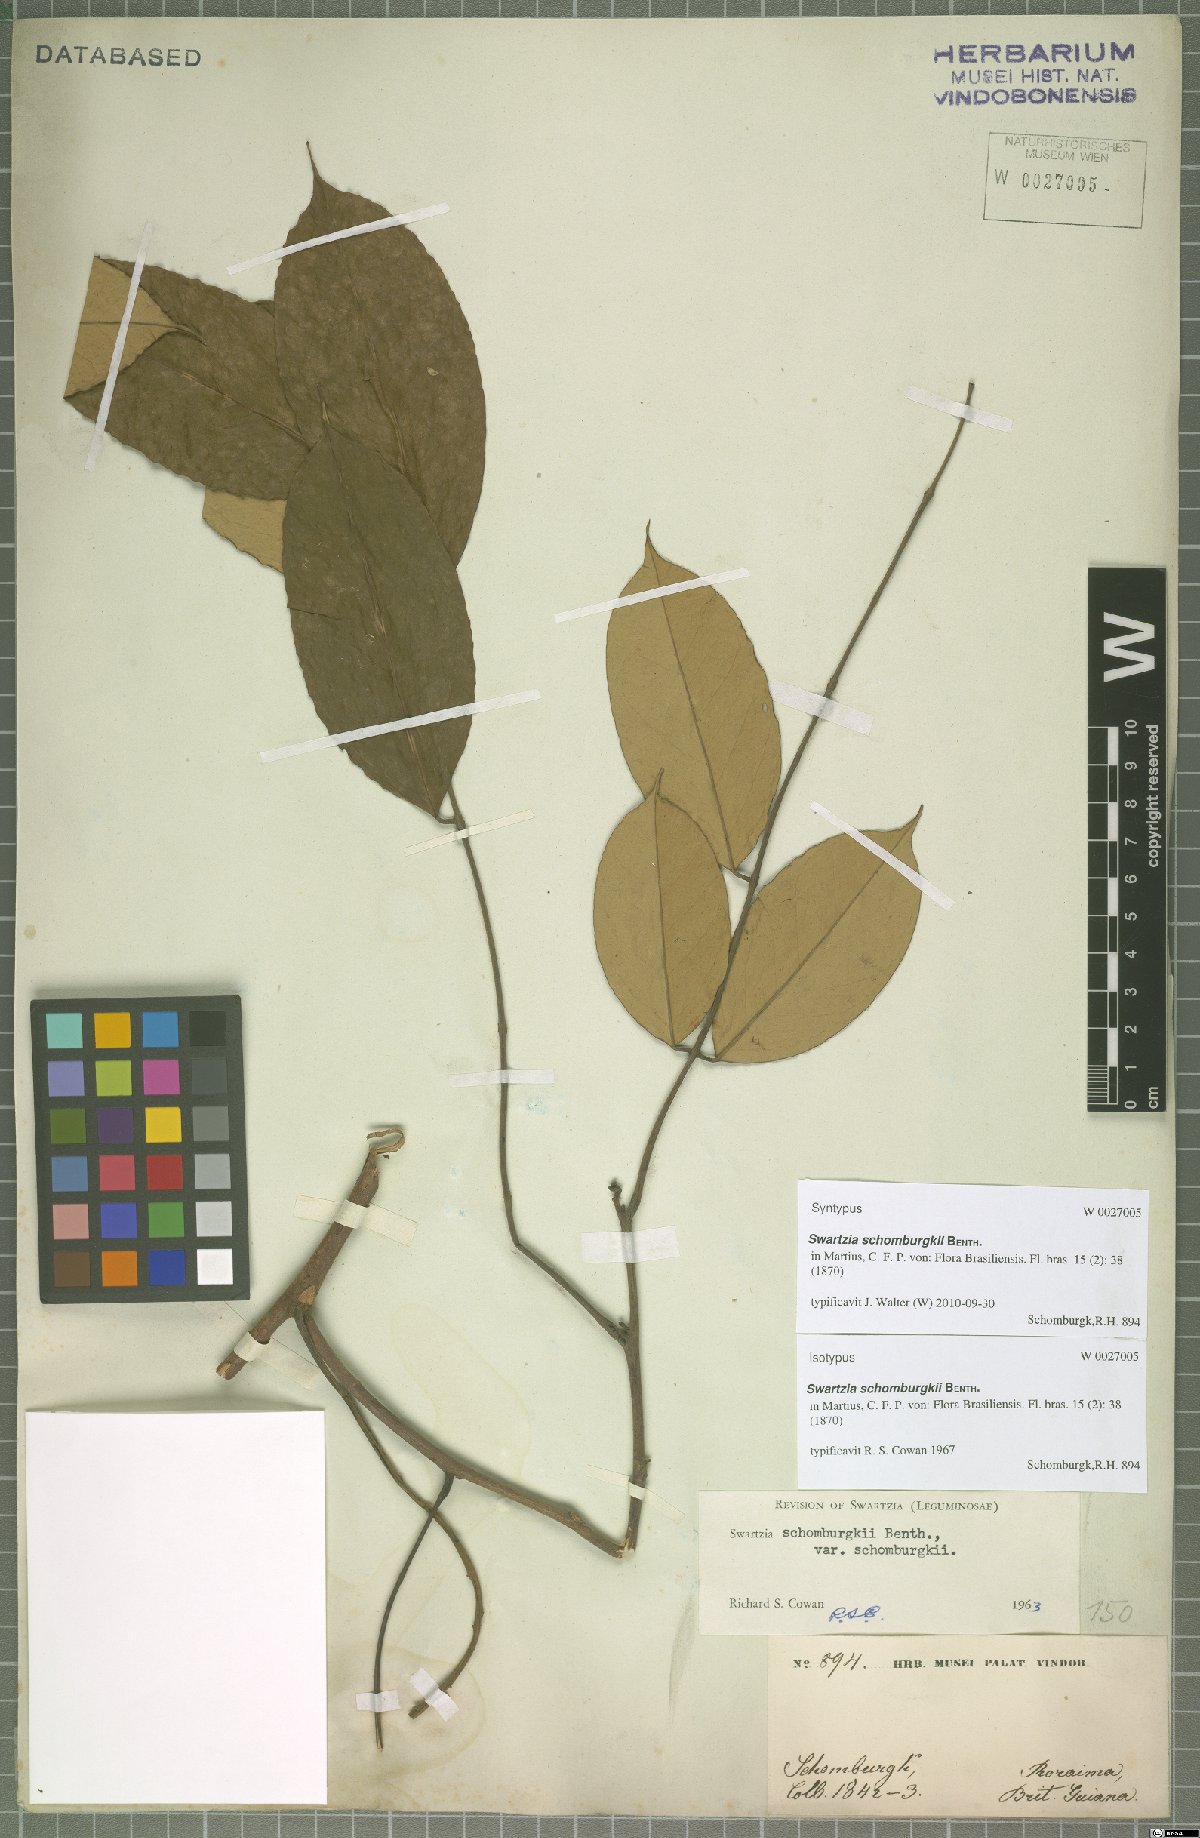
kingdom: Plantae
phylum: Tracheophyta
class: Magnoliopsida
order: Fabales
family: Fabaceae
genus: Swartzia
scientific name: Swartzia schomburgkii
